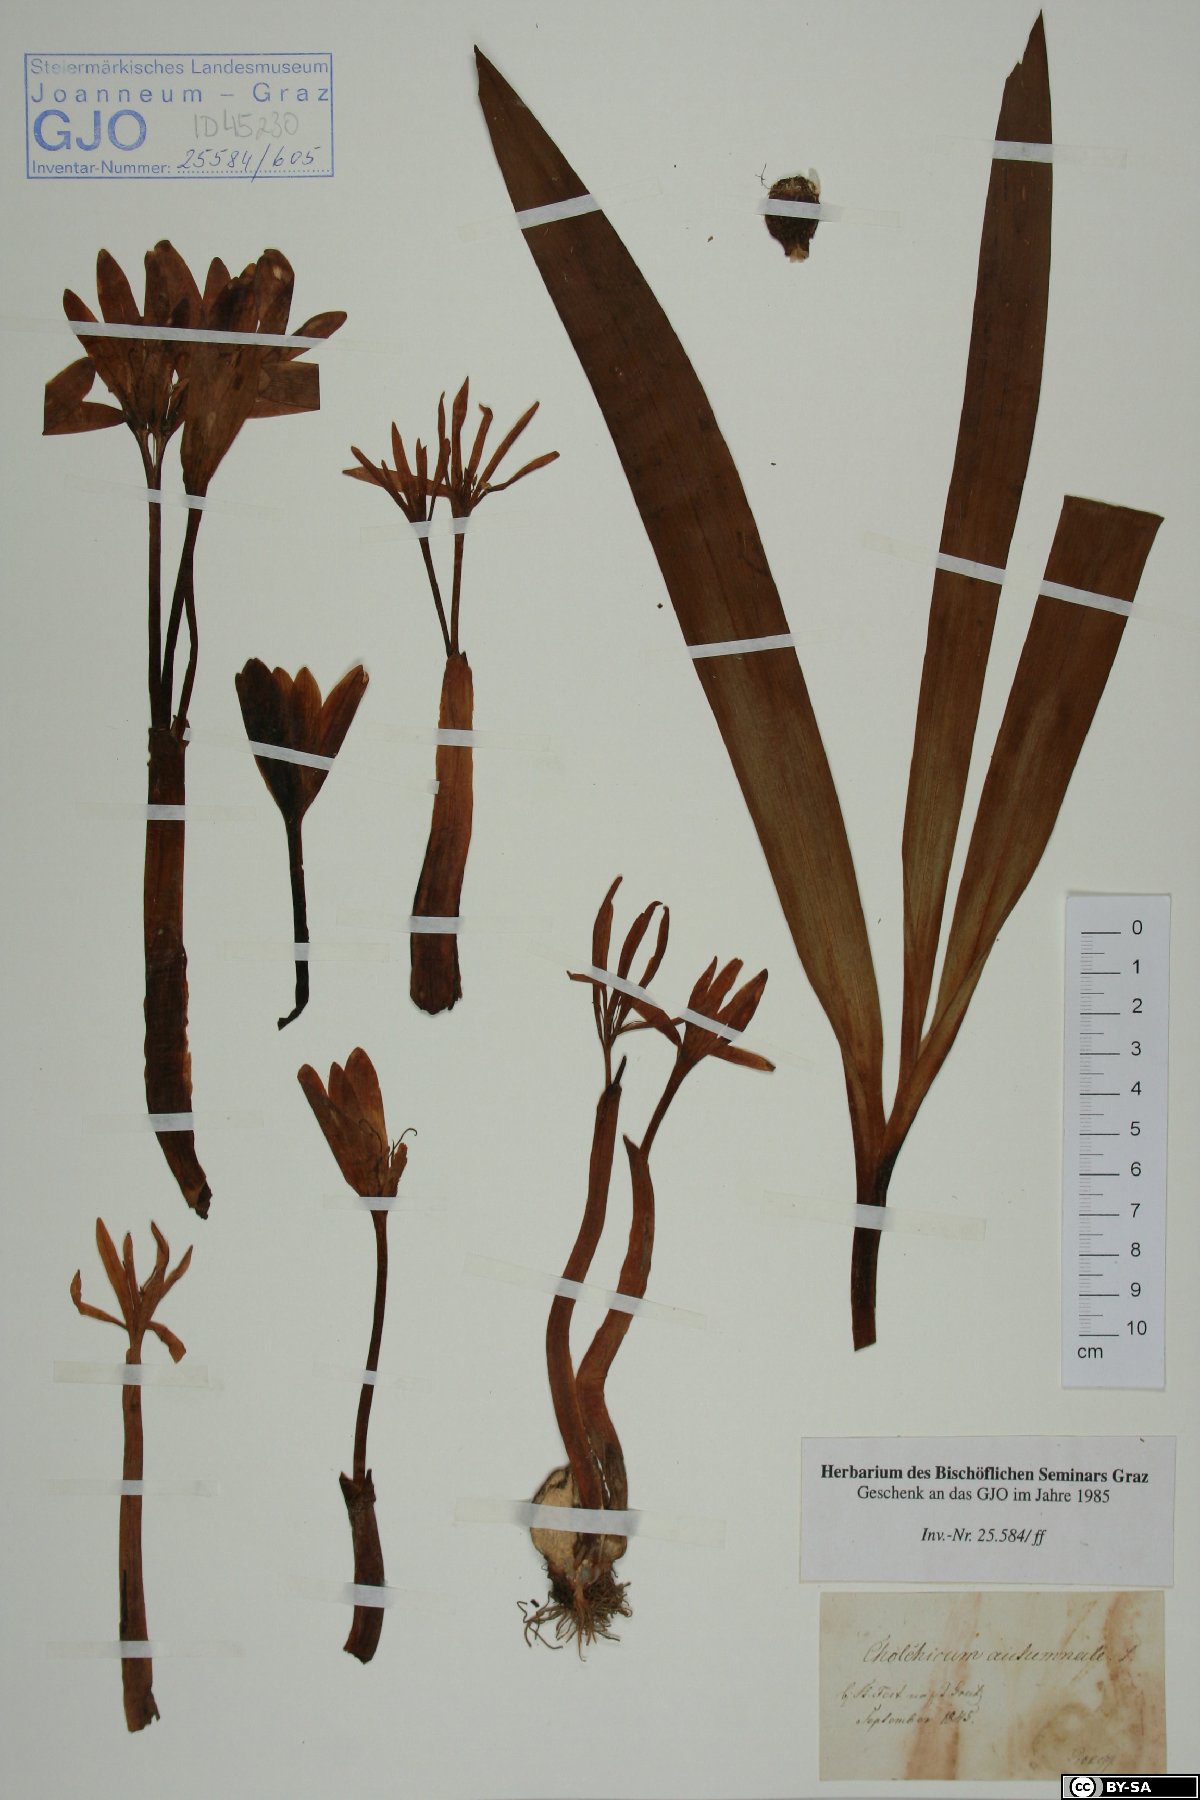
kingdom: Plantae
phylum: Tracheophyta
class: Liliopsida
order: Liliales
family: Colchicaceae
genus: Colchicum
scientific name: Colchicum autumnale
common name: Autumn crocus
